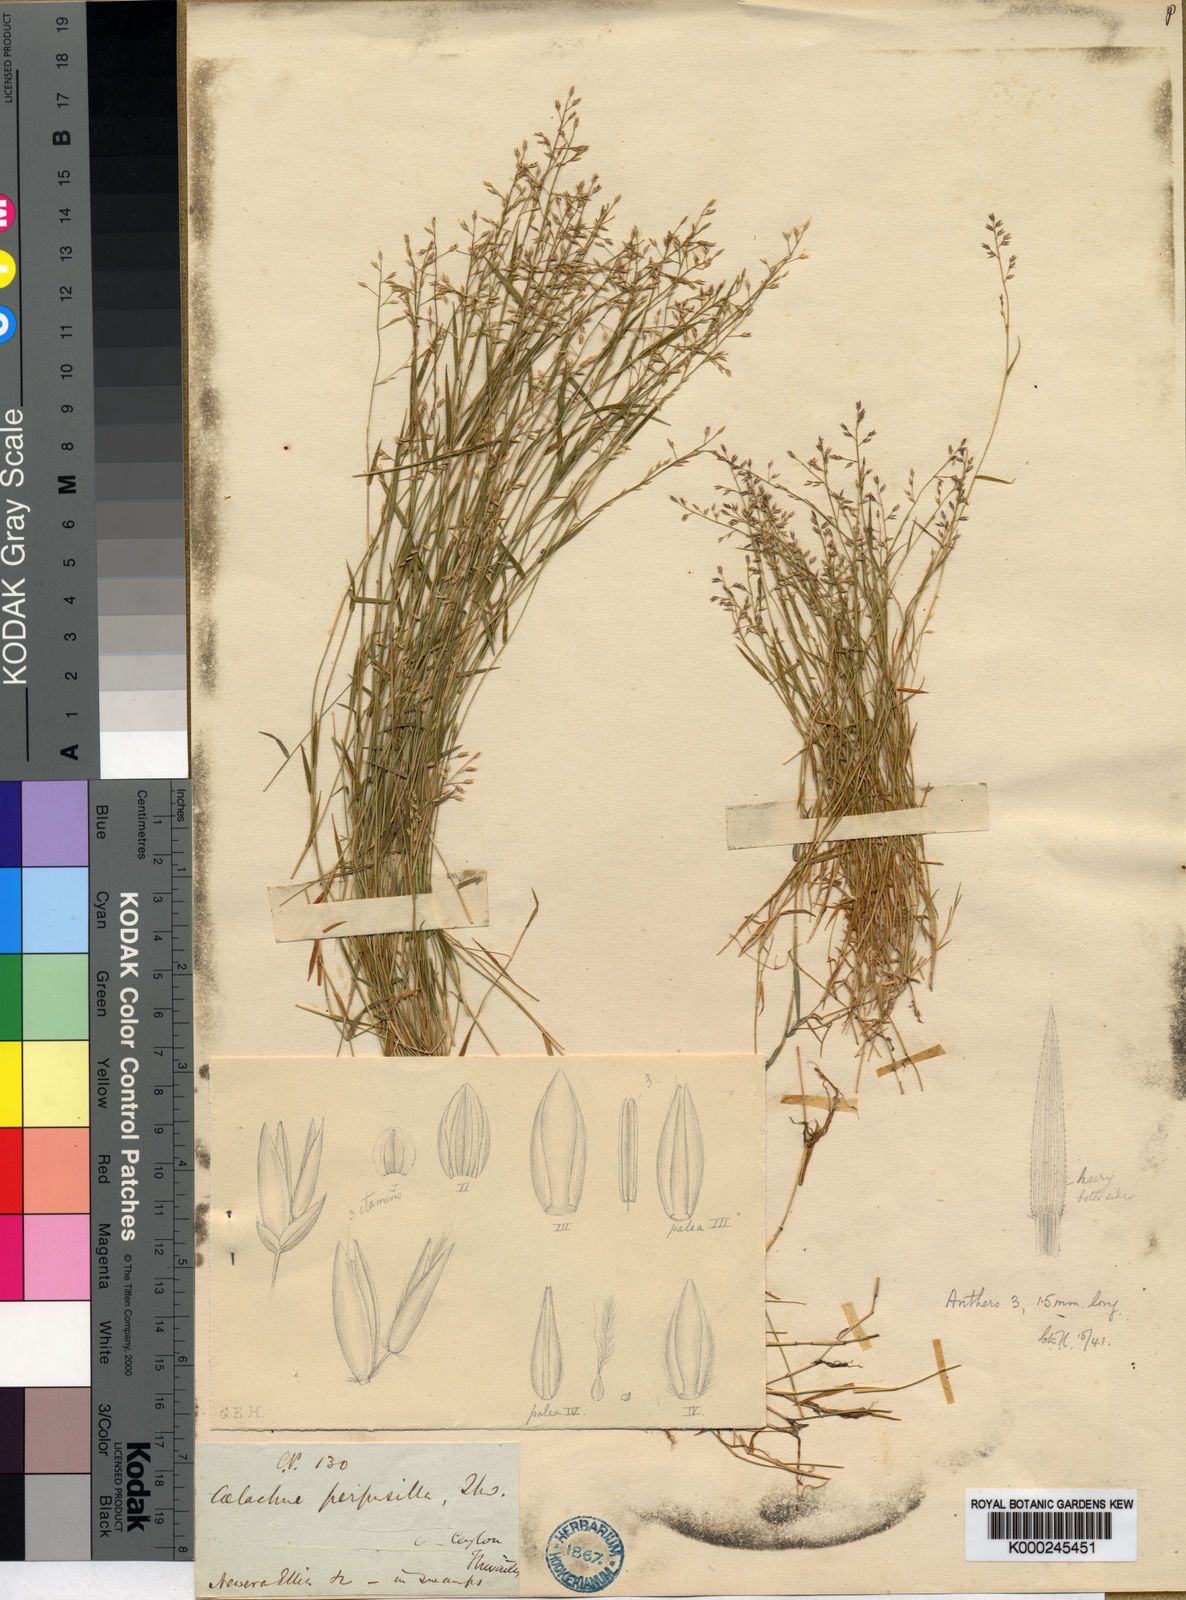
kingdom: Plantae
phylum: Tracheophyta
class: Liliopsida
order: Poales
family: Poaceae
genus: Coelachne
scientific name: Coelachne perpusilla
